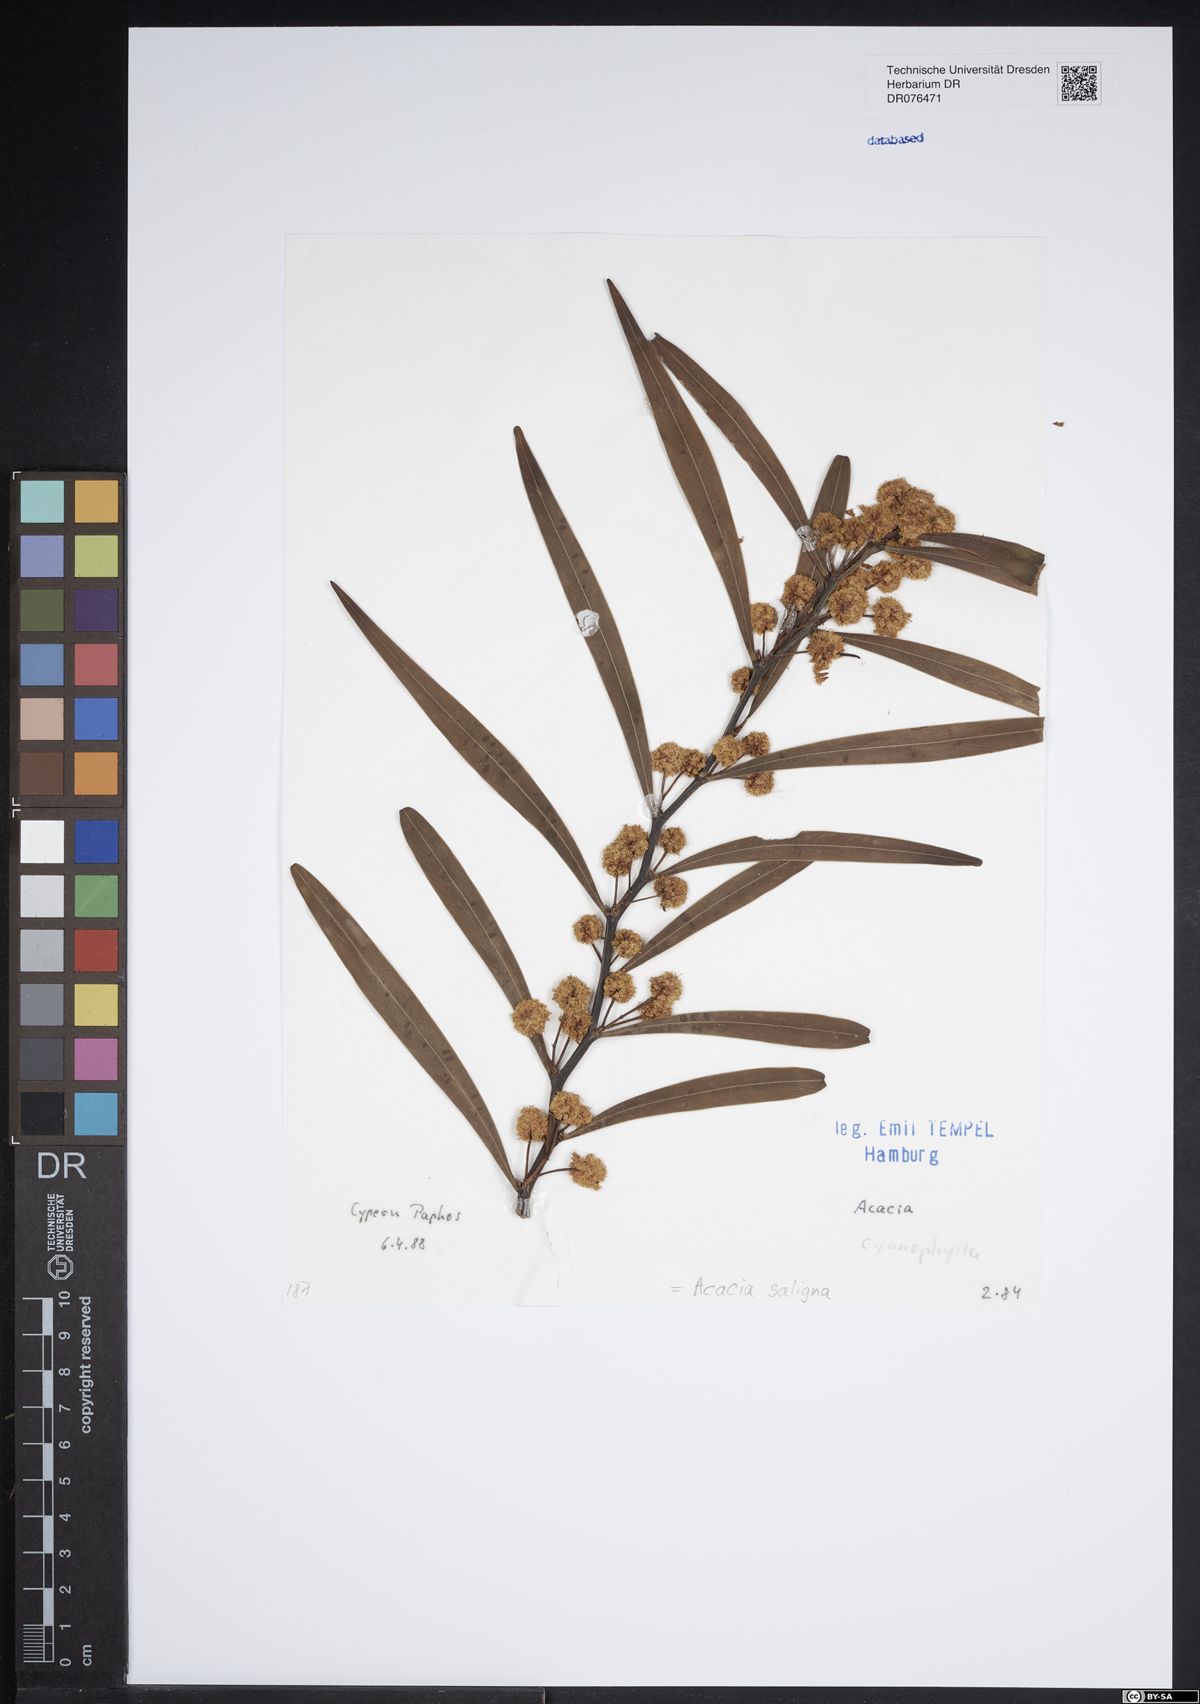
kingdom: Plantae
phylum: Tracheophyta
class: Magnoliopsida
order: Fabales
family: Fabaceae
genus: Acacia
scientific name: Acacia saligna
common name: Orange wattle
